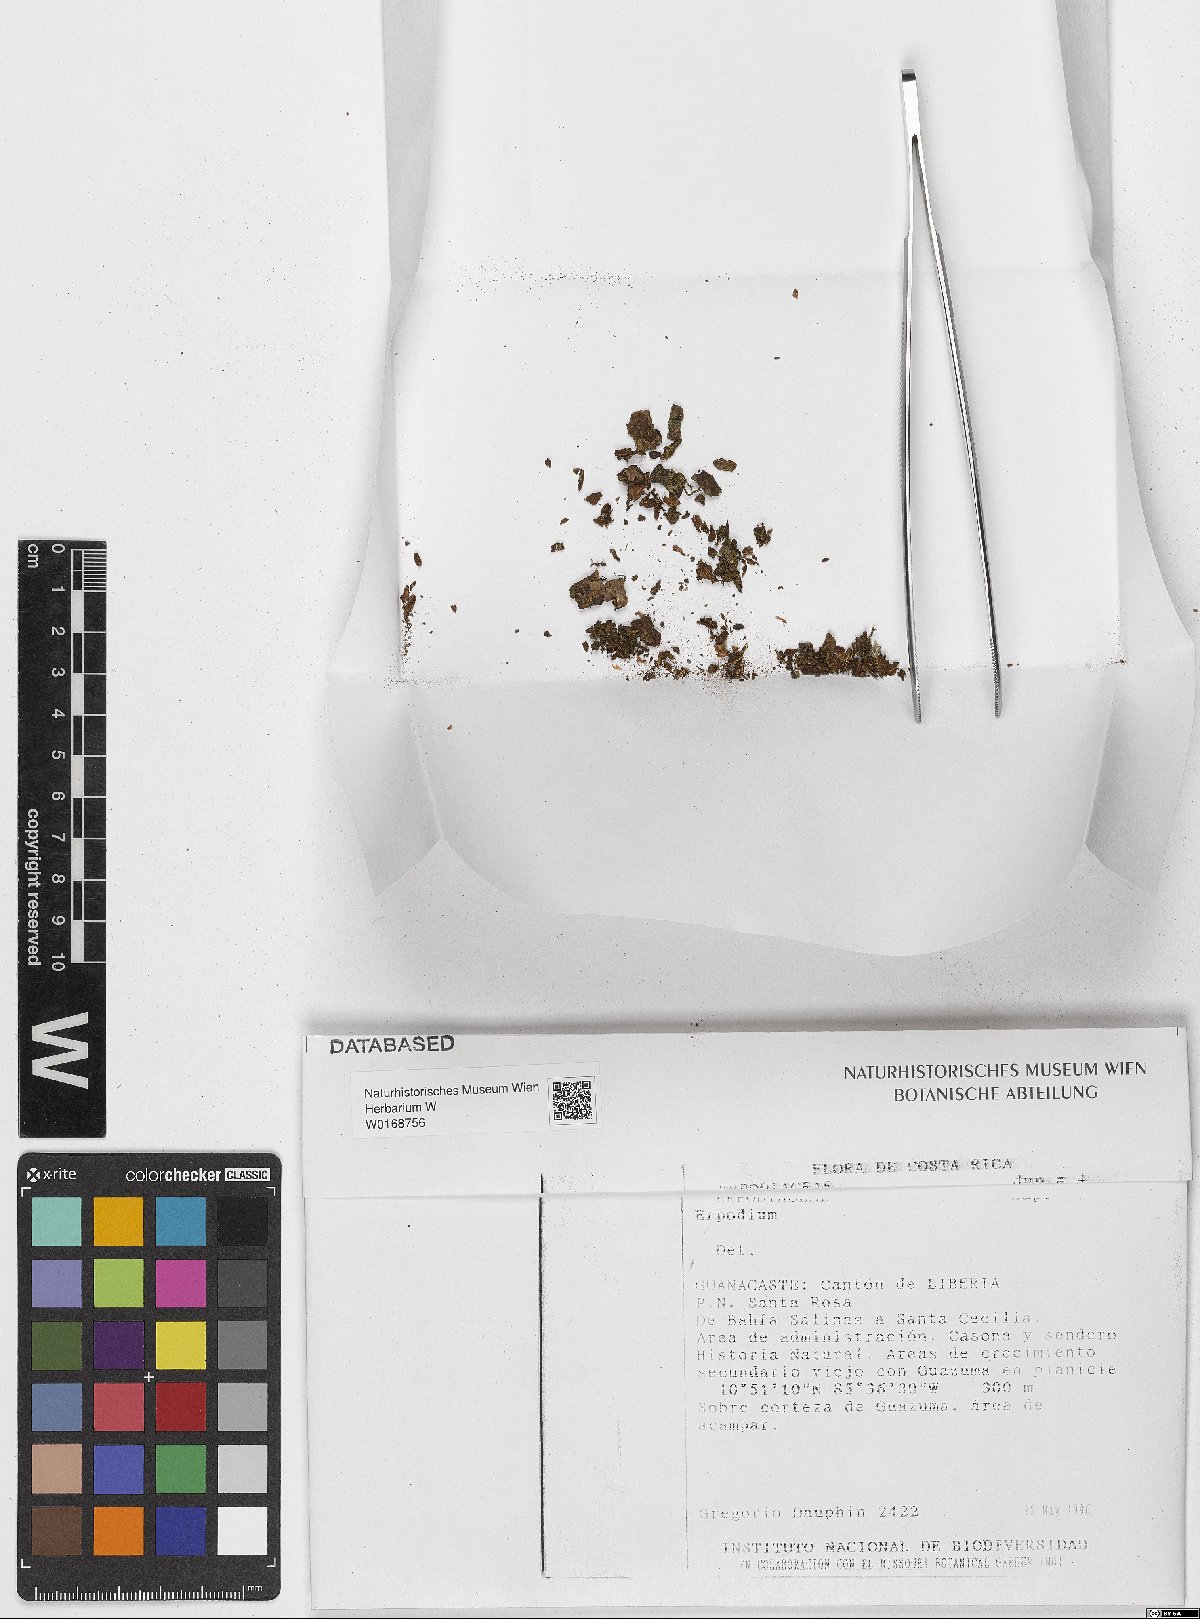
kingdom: Plantae
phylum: Bryophyta
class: Bryopsida
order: Dicranales
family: Erpodiaceae
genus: Erpodium
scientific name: Erpodium
